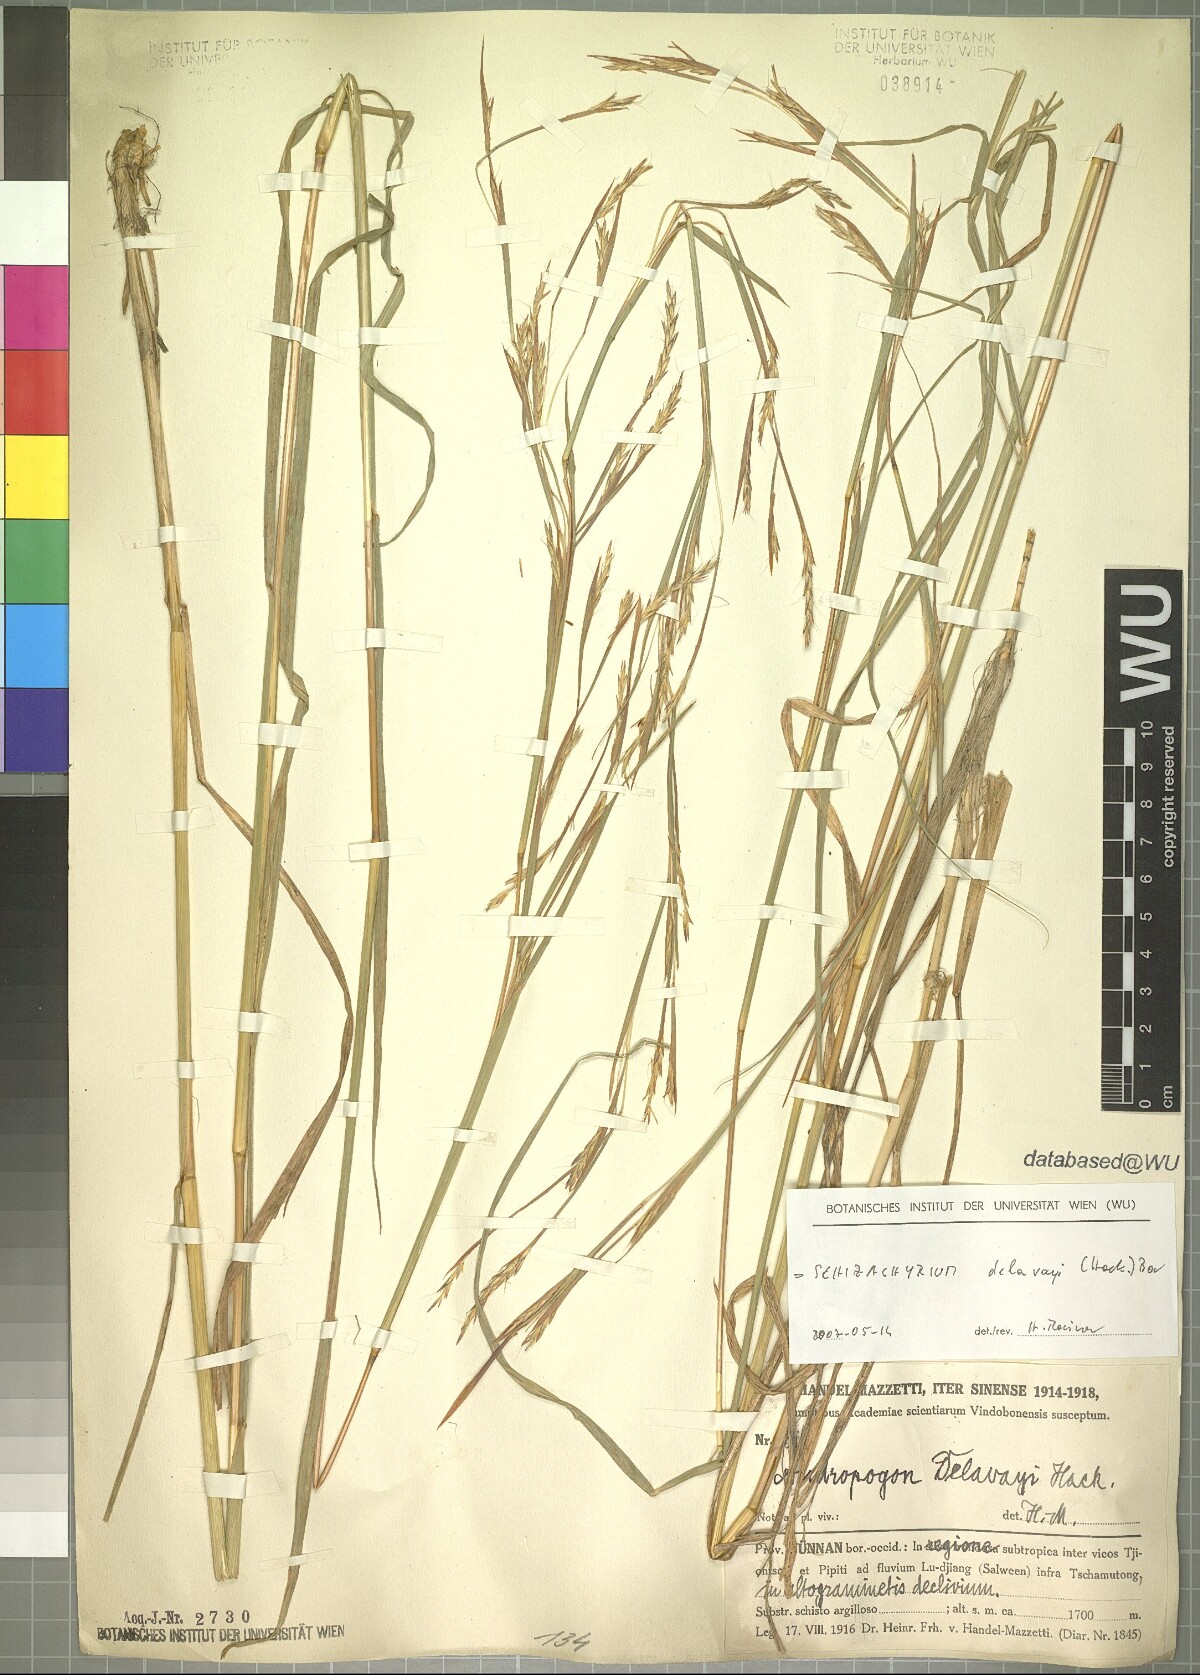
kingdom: Plantae
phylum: Tracheophyta
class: Liliopsida
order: Poales
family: Poaceae
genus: Schizachyrium
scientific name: Schizachyrium delavayi
